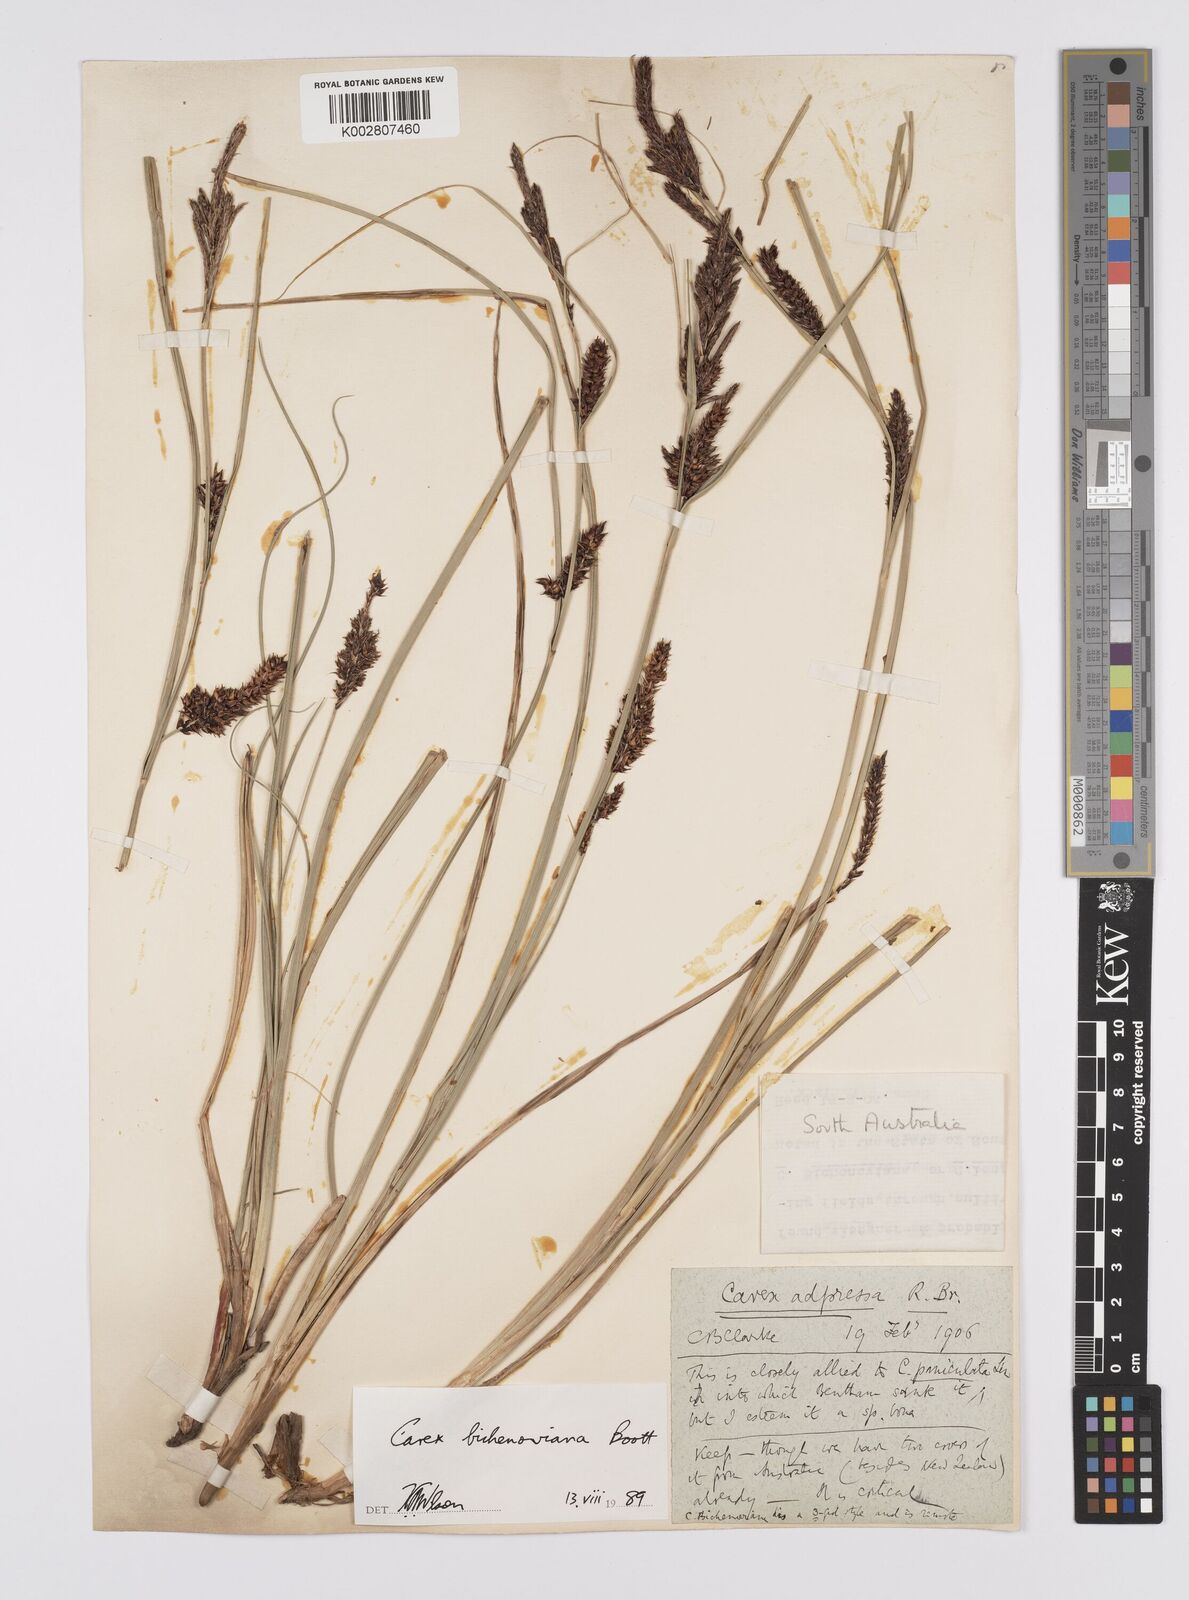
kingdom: Plantae
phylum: Tracheophyta
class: Liliopsida
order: Poales
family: Cyperaceae
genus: Carex
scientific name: Carex bichenoviana
